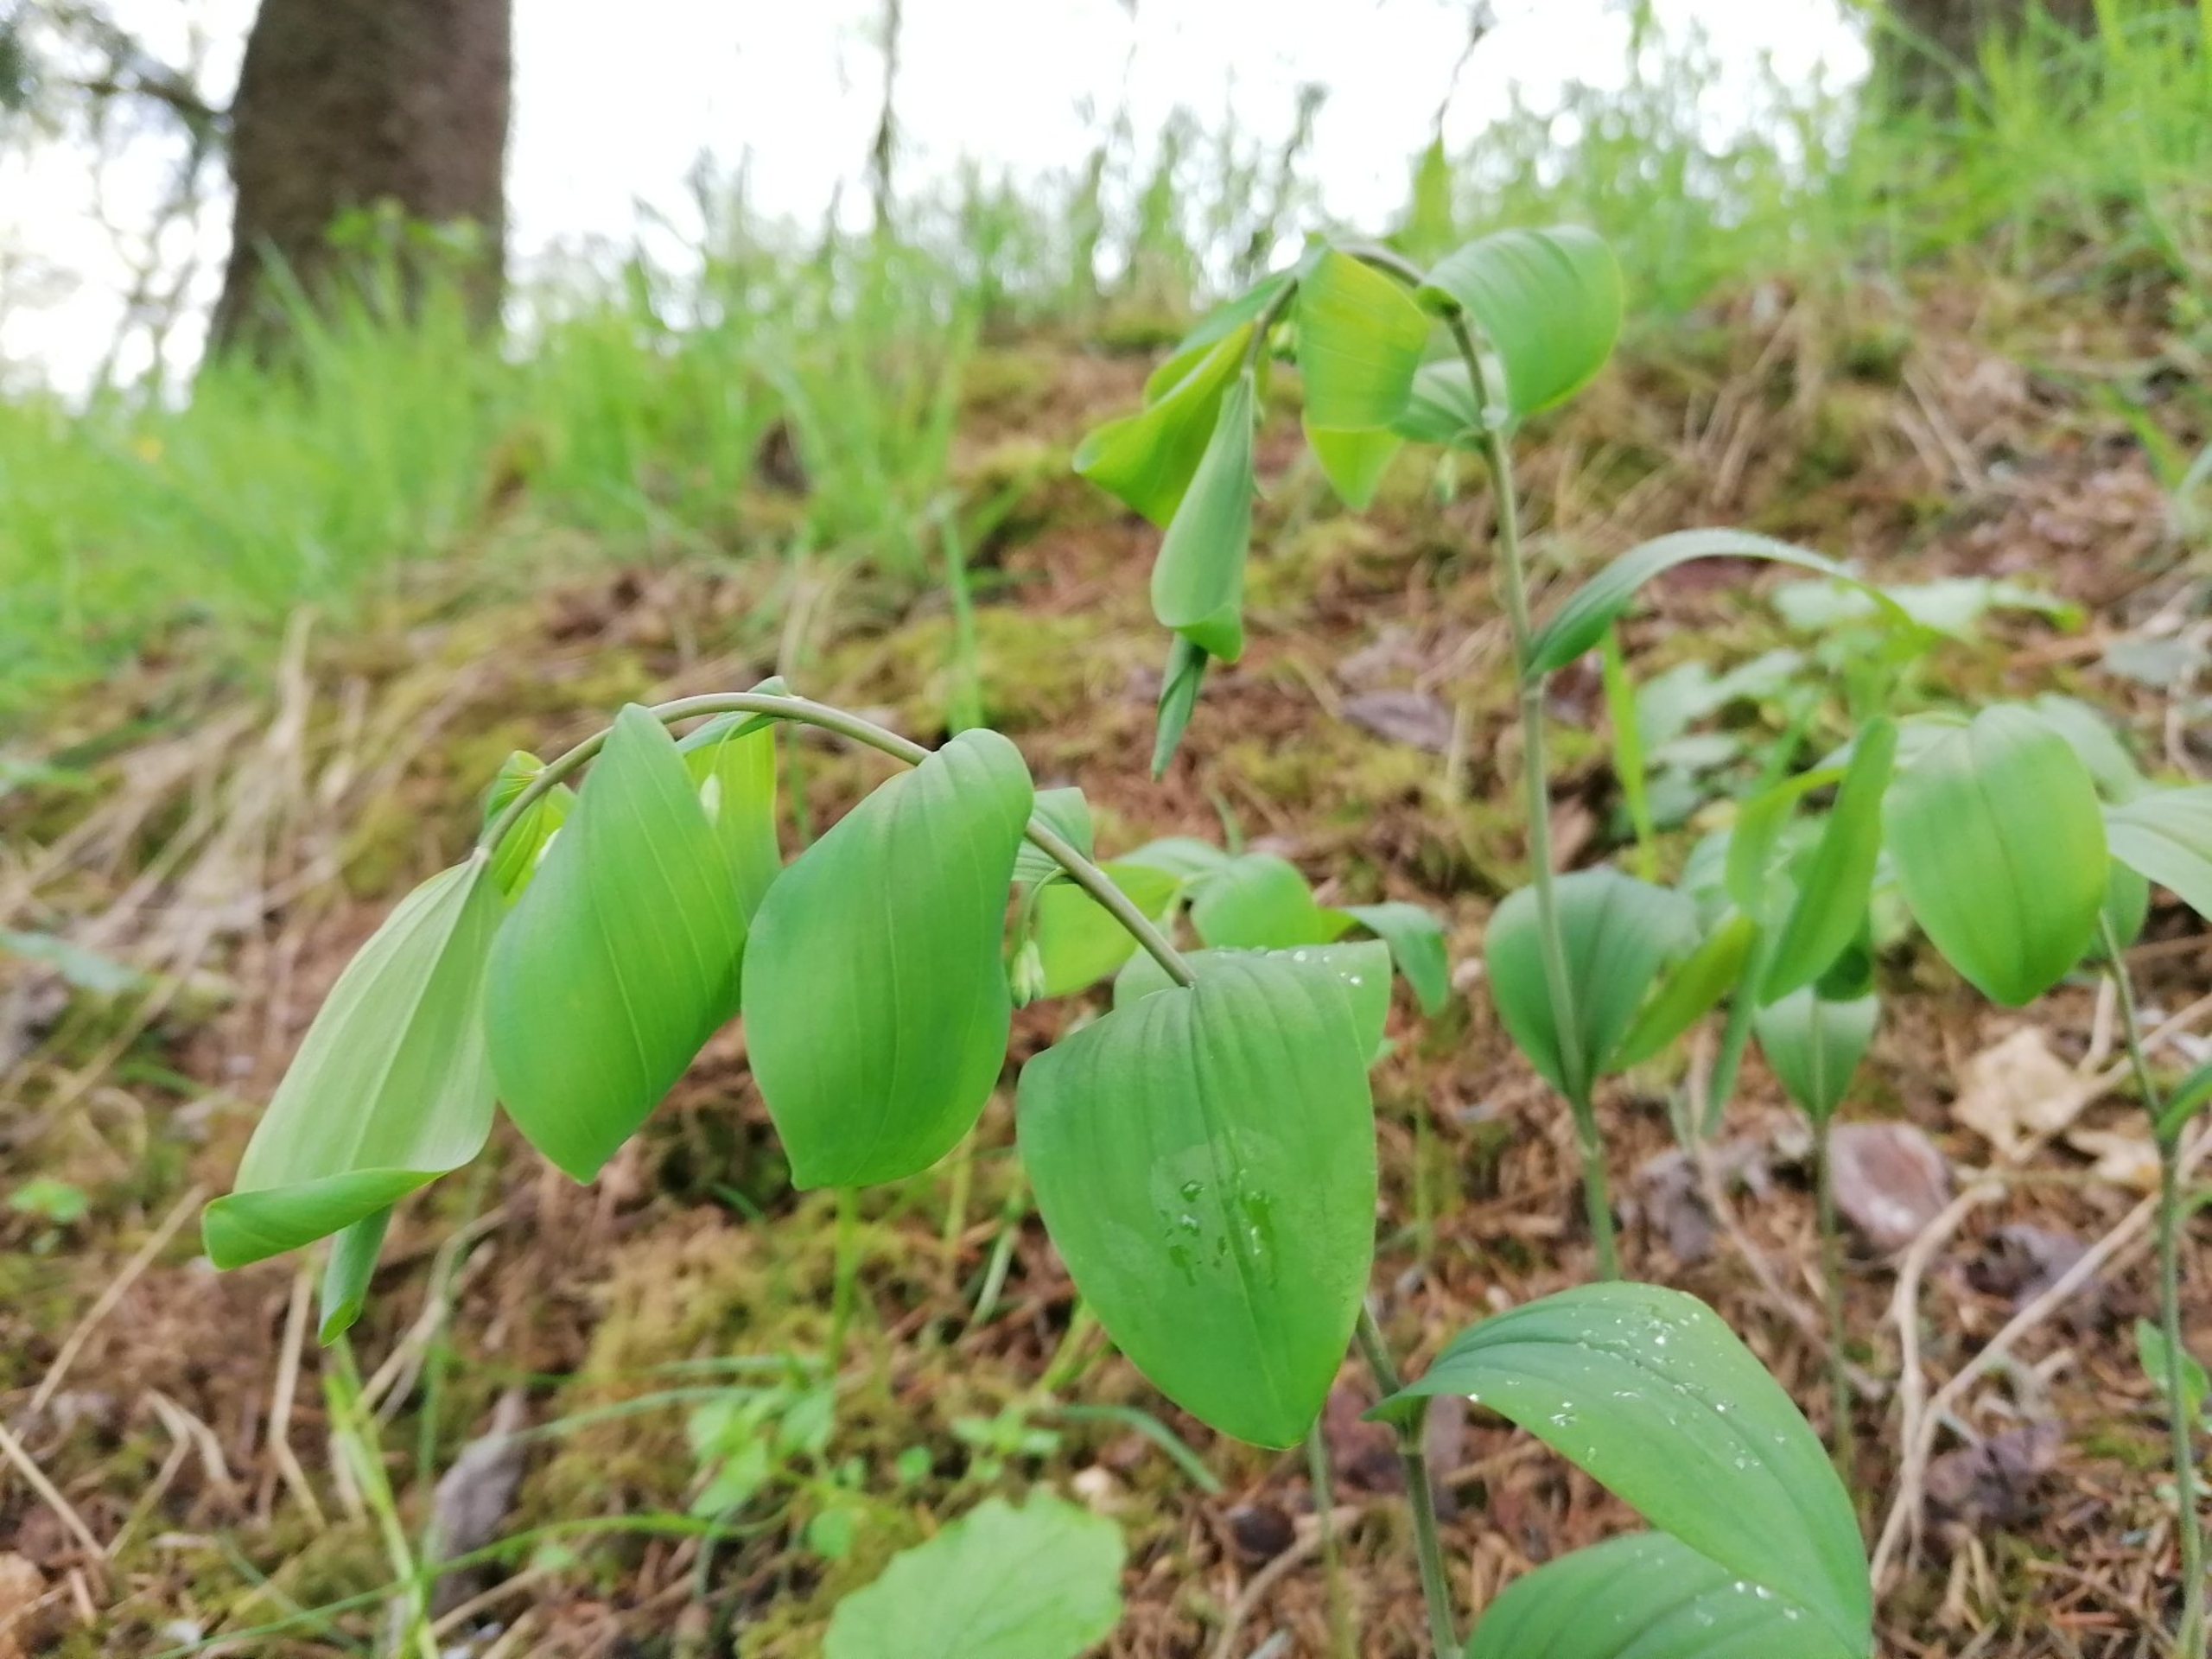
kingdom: Plantae
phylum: Tracheophyta
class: Liliopsida
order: Asparagales
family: Asparagaceae
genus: Polygonatum
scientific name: Polygonatum multiflorum
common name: Stor konval
